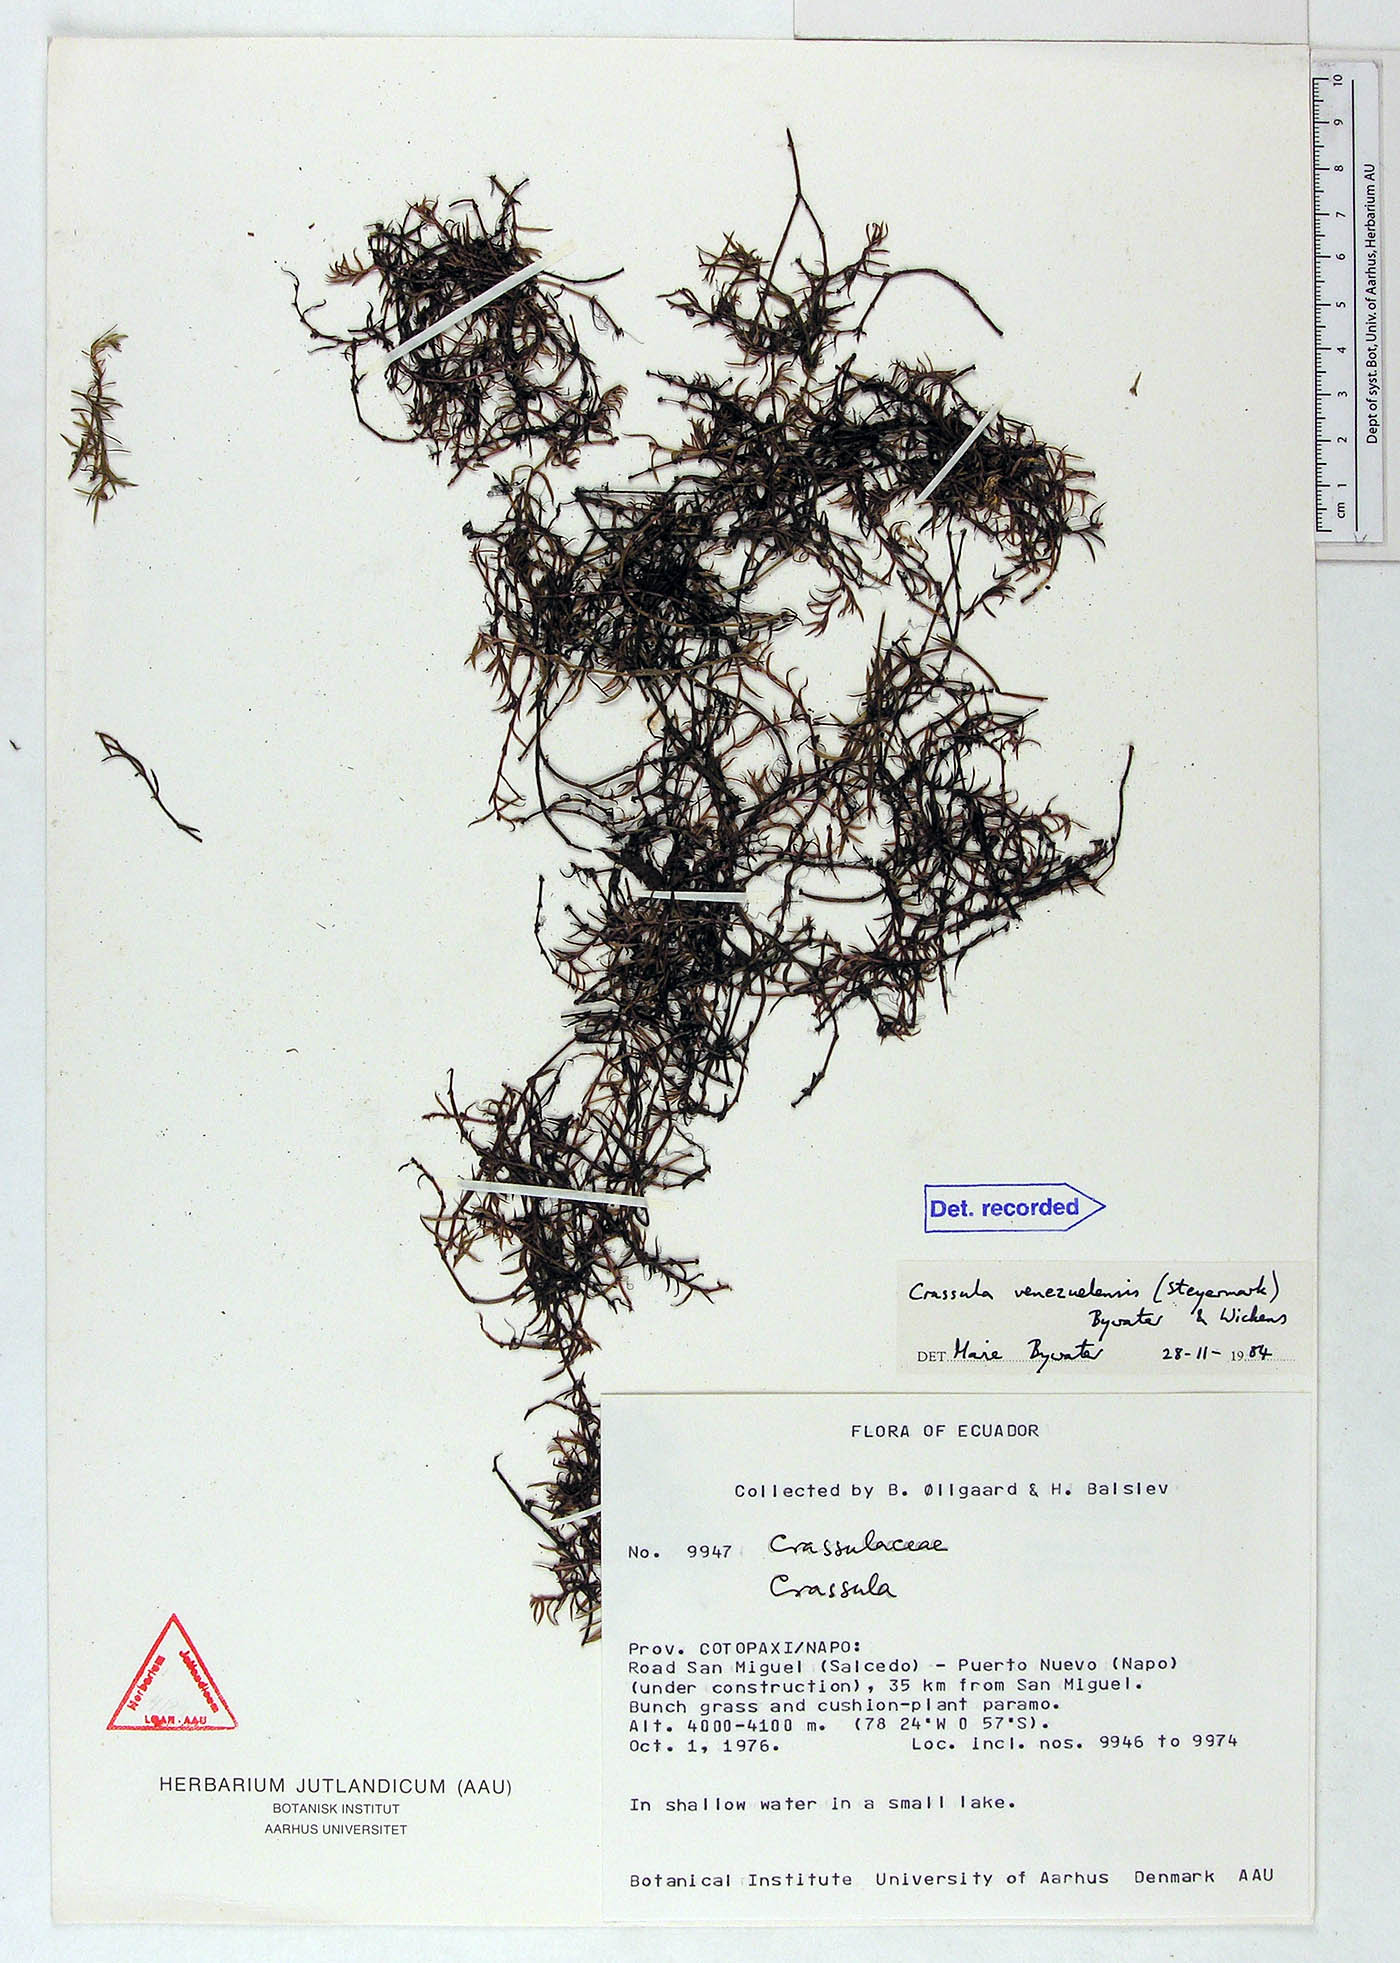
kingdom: Plantae
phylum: Tracheophyta
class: Magnoliopsida
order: Saxifragales
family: Crassulaceae
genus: Crassula
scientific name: Crassula venezuelensis
